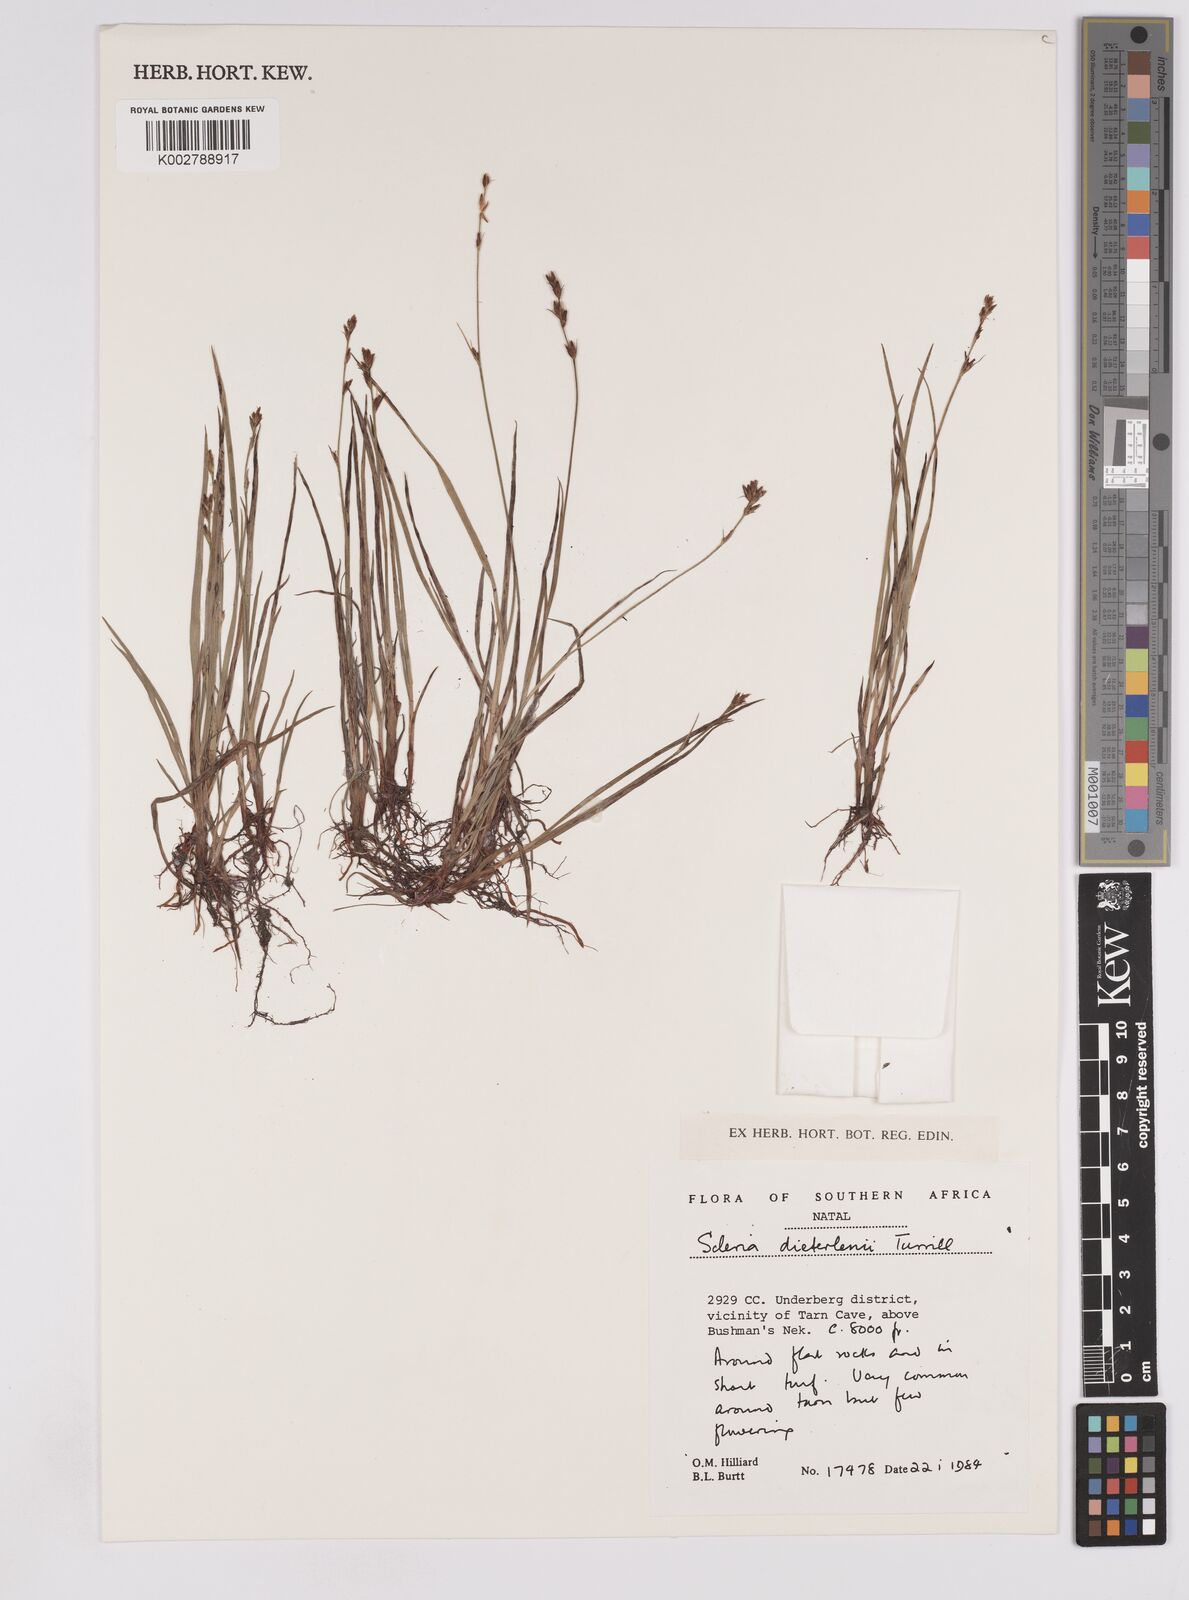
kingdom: Plantae
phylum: Tracheophyta
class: Liliopsida
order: Poales
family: Cyperaceae
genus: Scleria
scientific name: Scleria flexuosa
